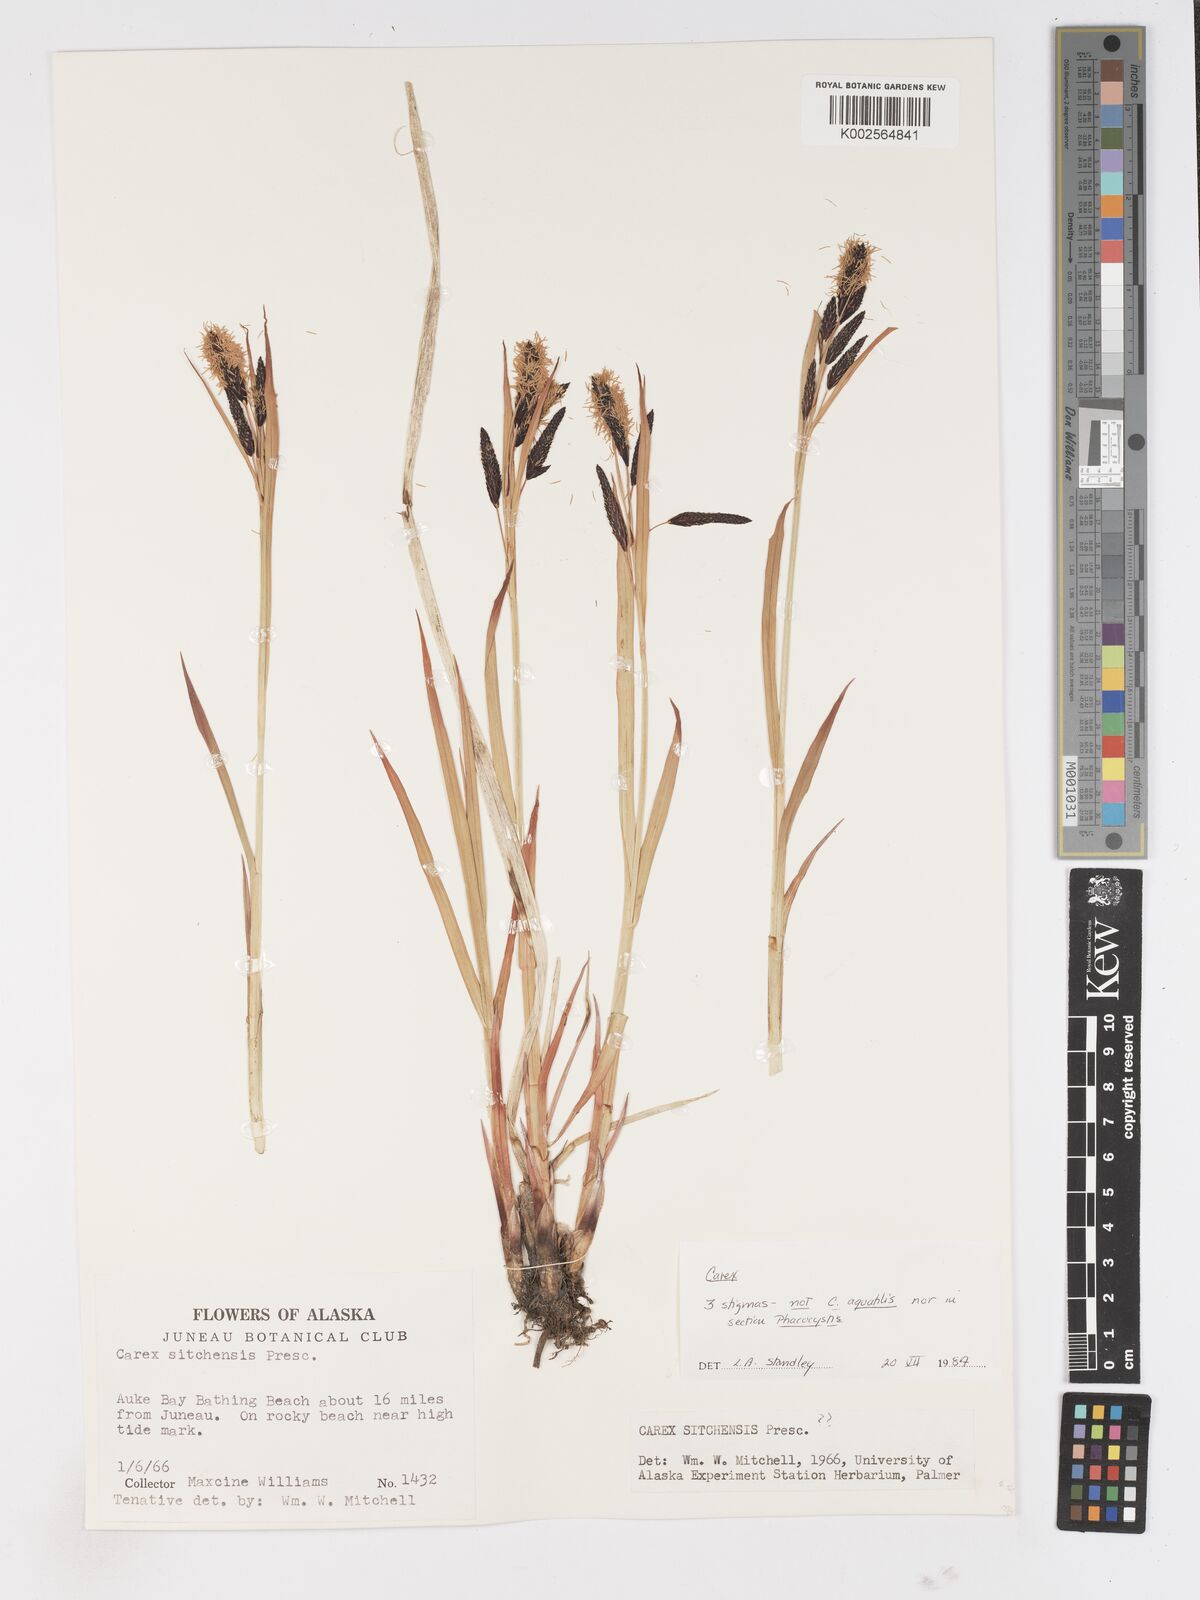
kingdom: Plantae
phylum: Tracheophyta
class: Liliopsida
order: Poales
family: Cyperaceae
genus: Carex
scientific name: Carex
